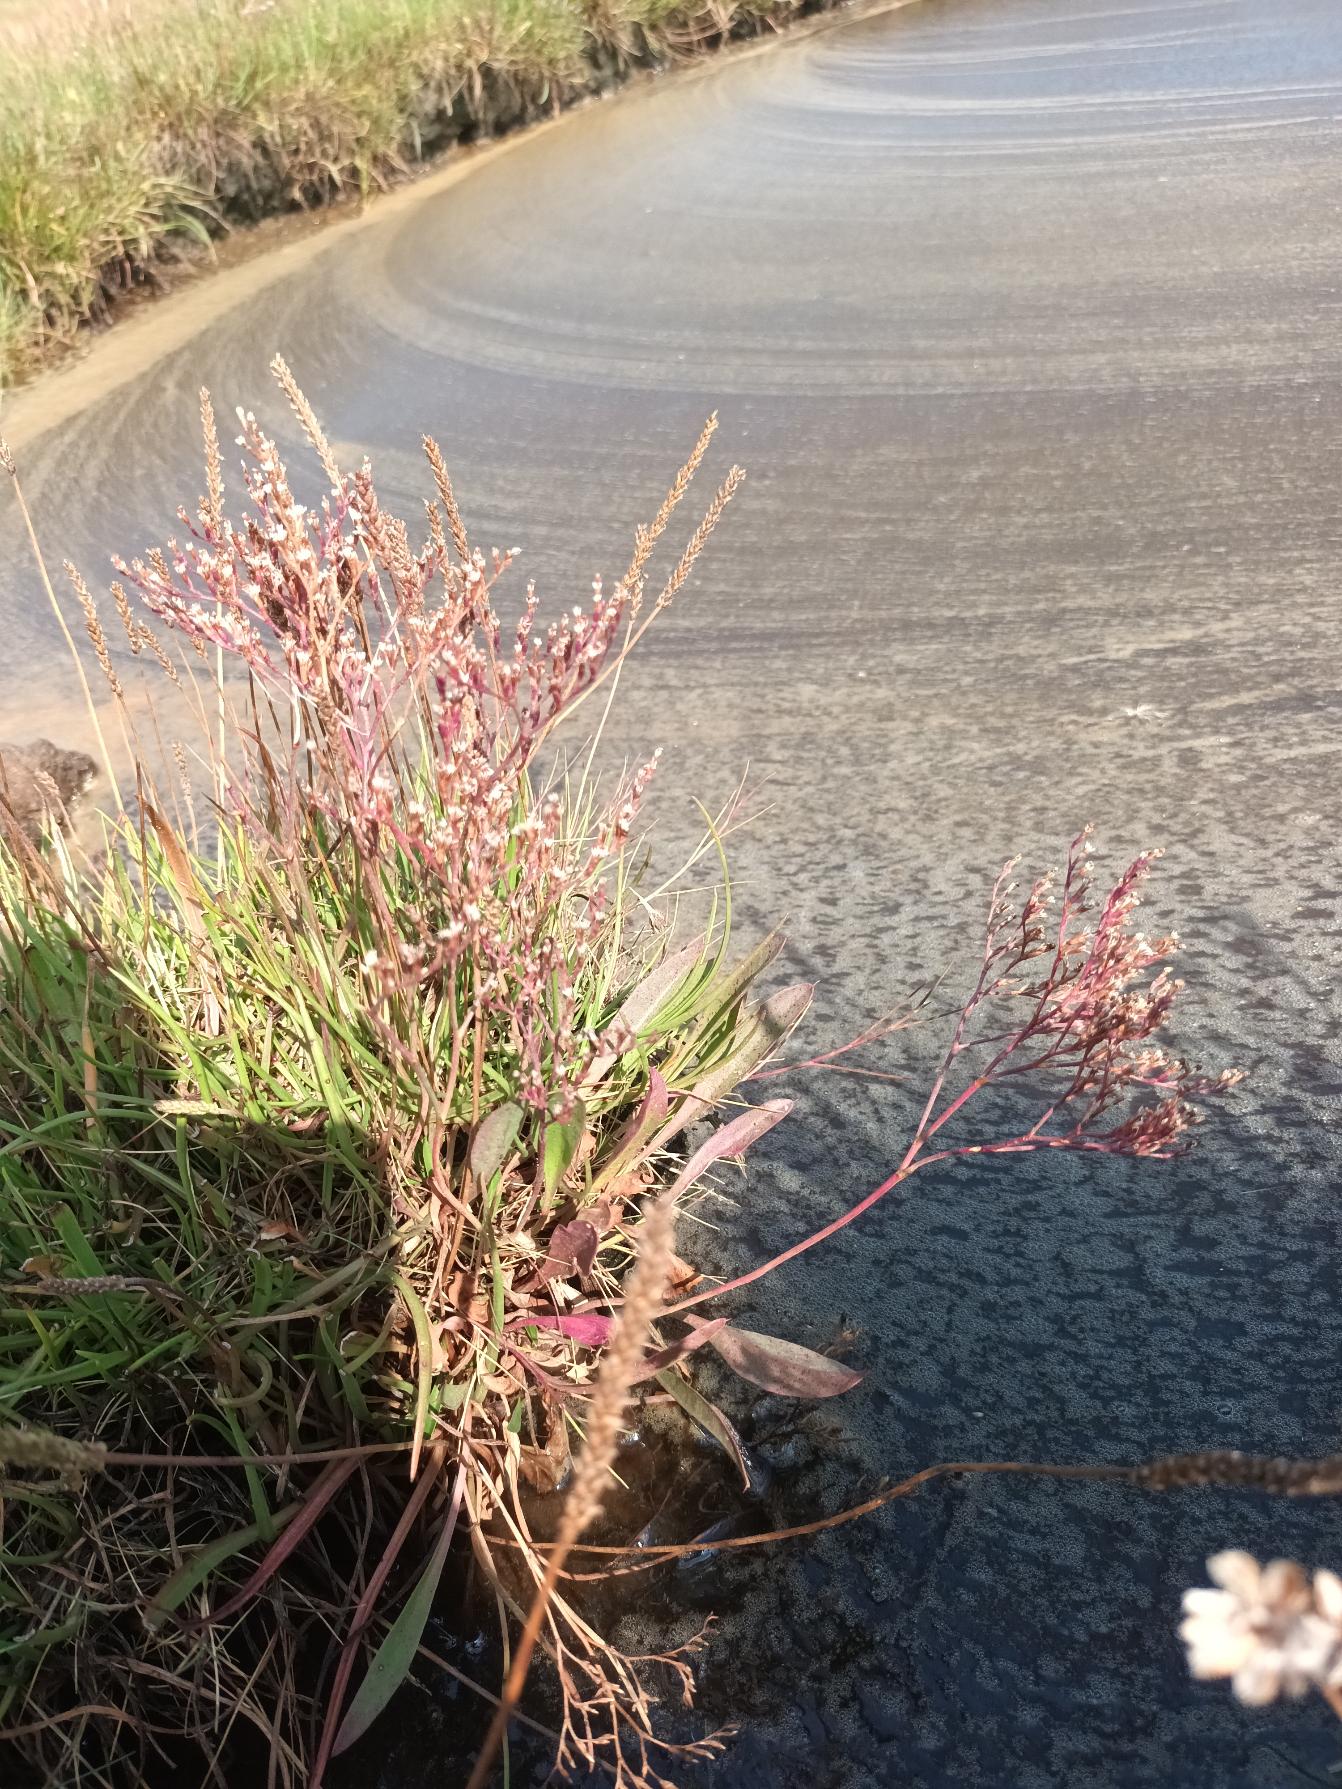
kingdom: Plantae
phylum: Tracheophyta
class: Magnoliopsida
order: Caryophyllales
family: Plumbaginaceae
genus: Limonium
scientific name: Limonium humile
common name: Lav hindebæger
